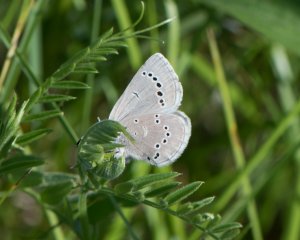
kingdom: Animalia
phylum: Arthropoda
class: Insecta
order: Lepidoptera
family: Lycaenidae
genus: Glaucopsyche
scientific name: Glaucopsyche lygdamus
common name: Silvery Blue
